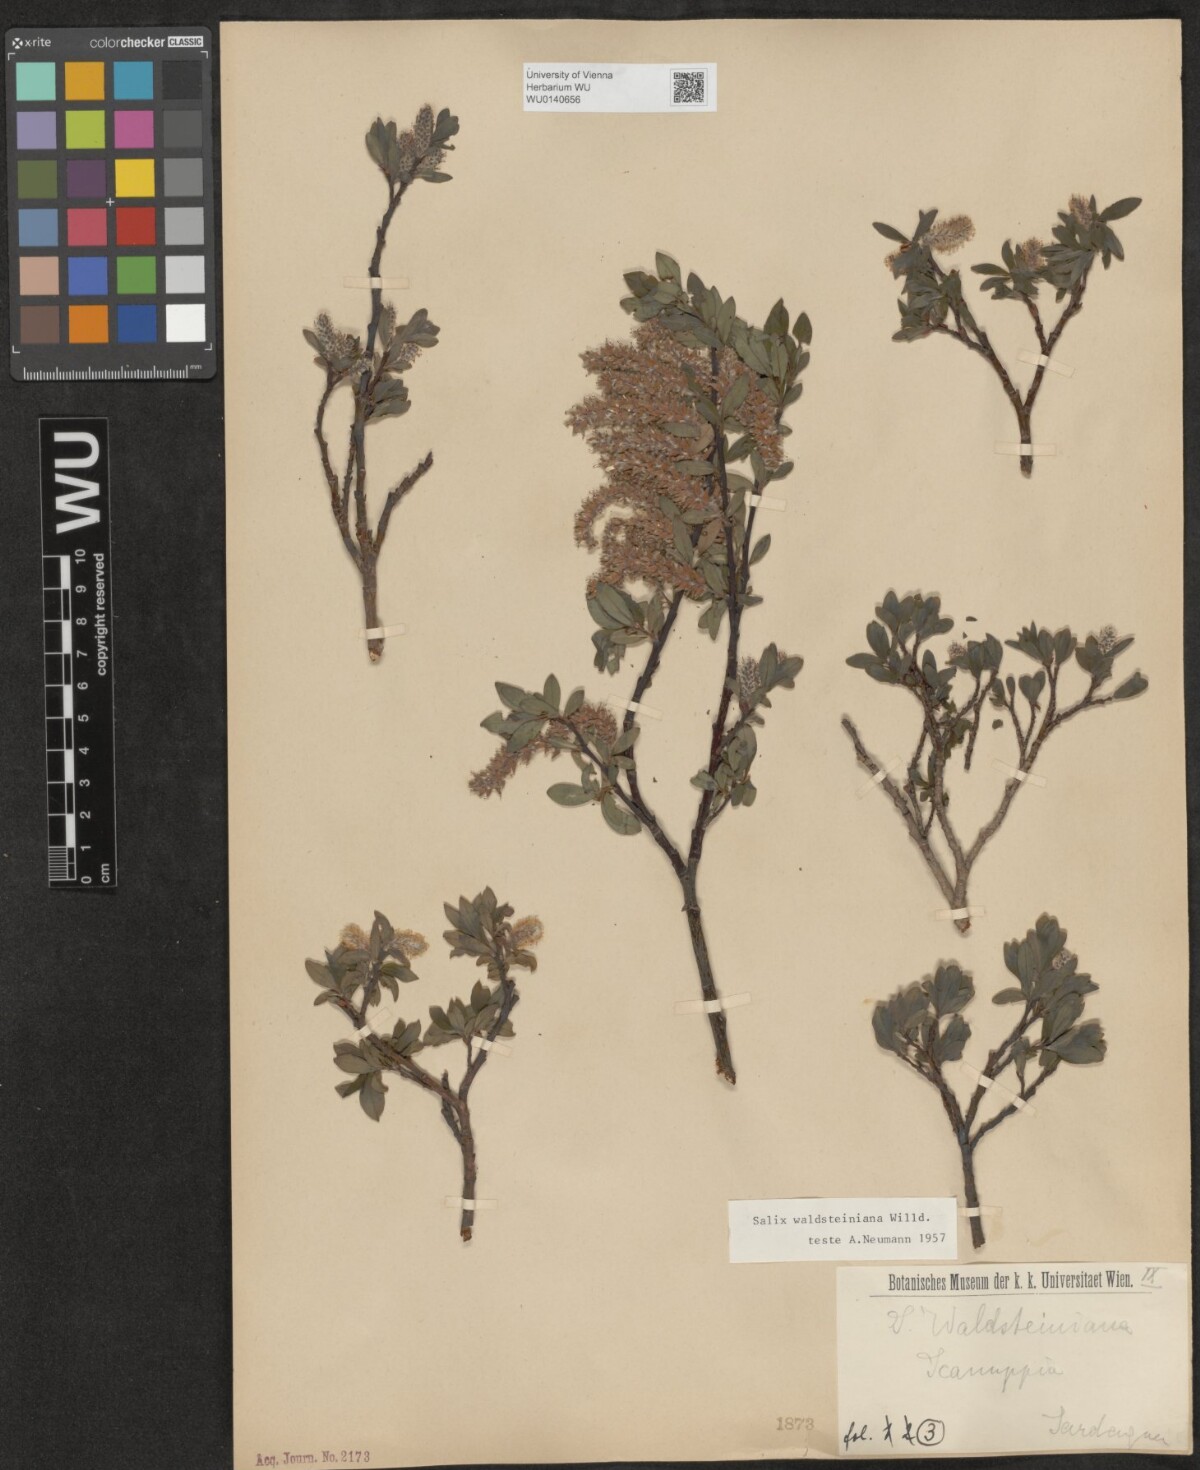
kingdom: Plantae
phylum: Tracheophyta
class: Magnoliopsida
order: Malpighiales
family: Salicaceae
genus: Salix
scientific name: Salix waldsteiniana
